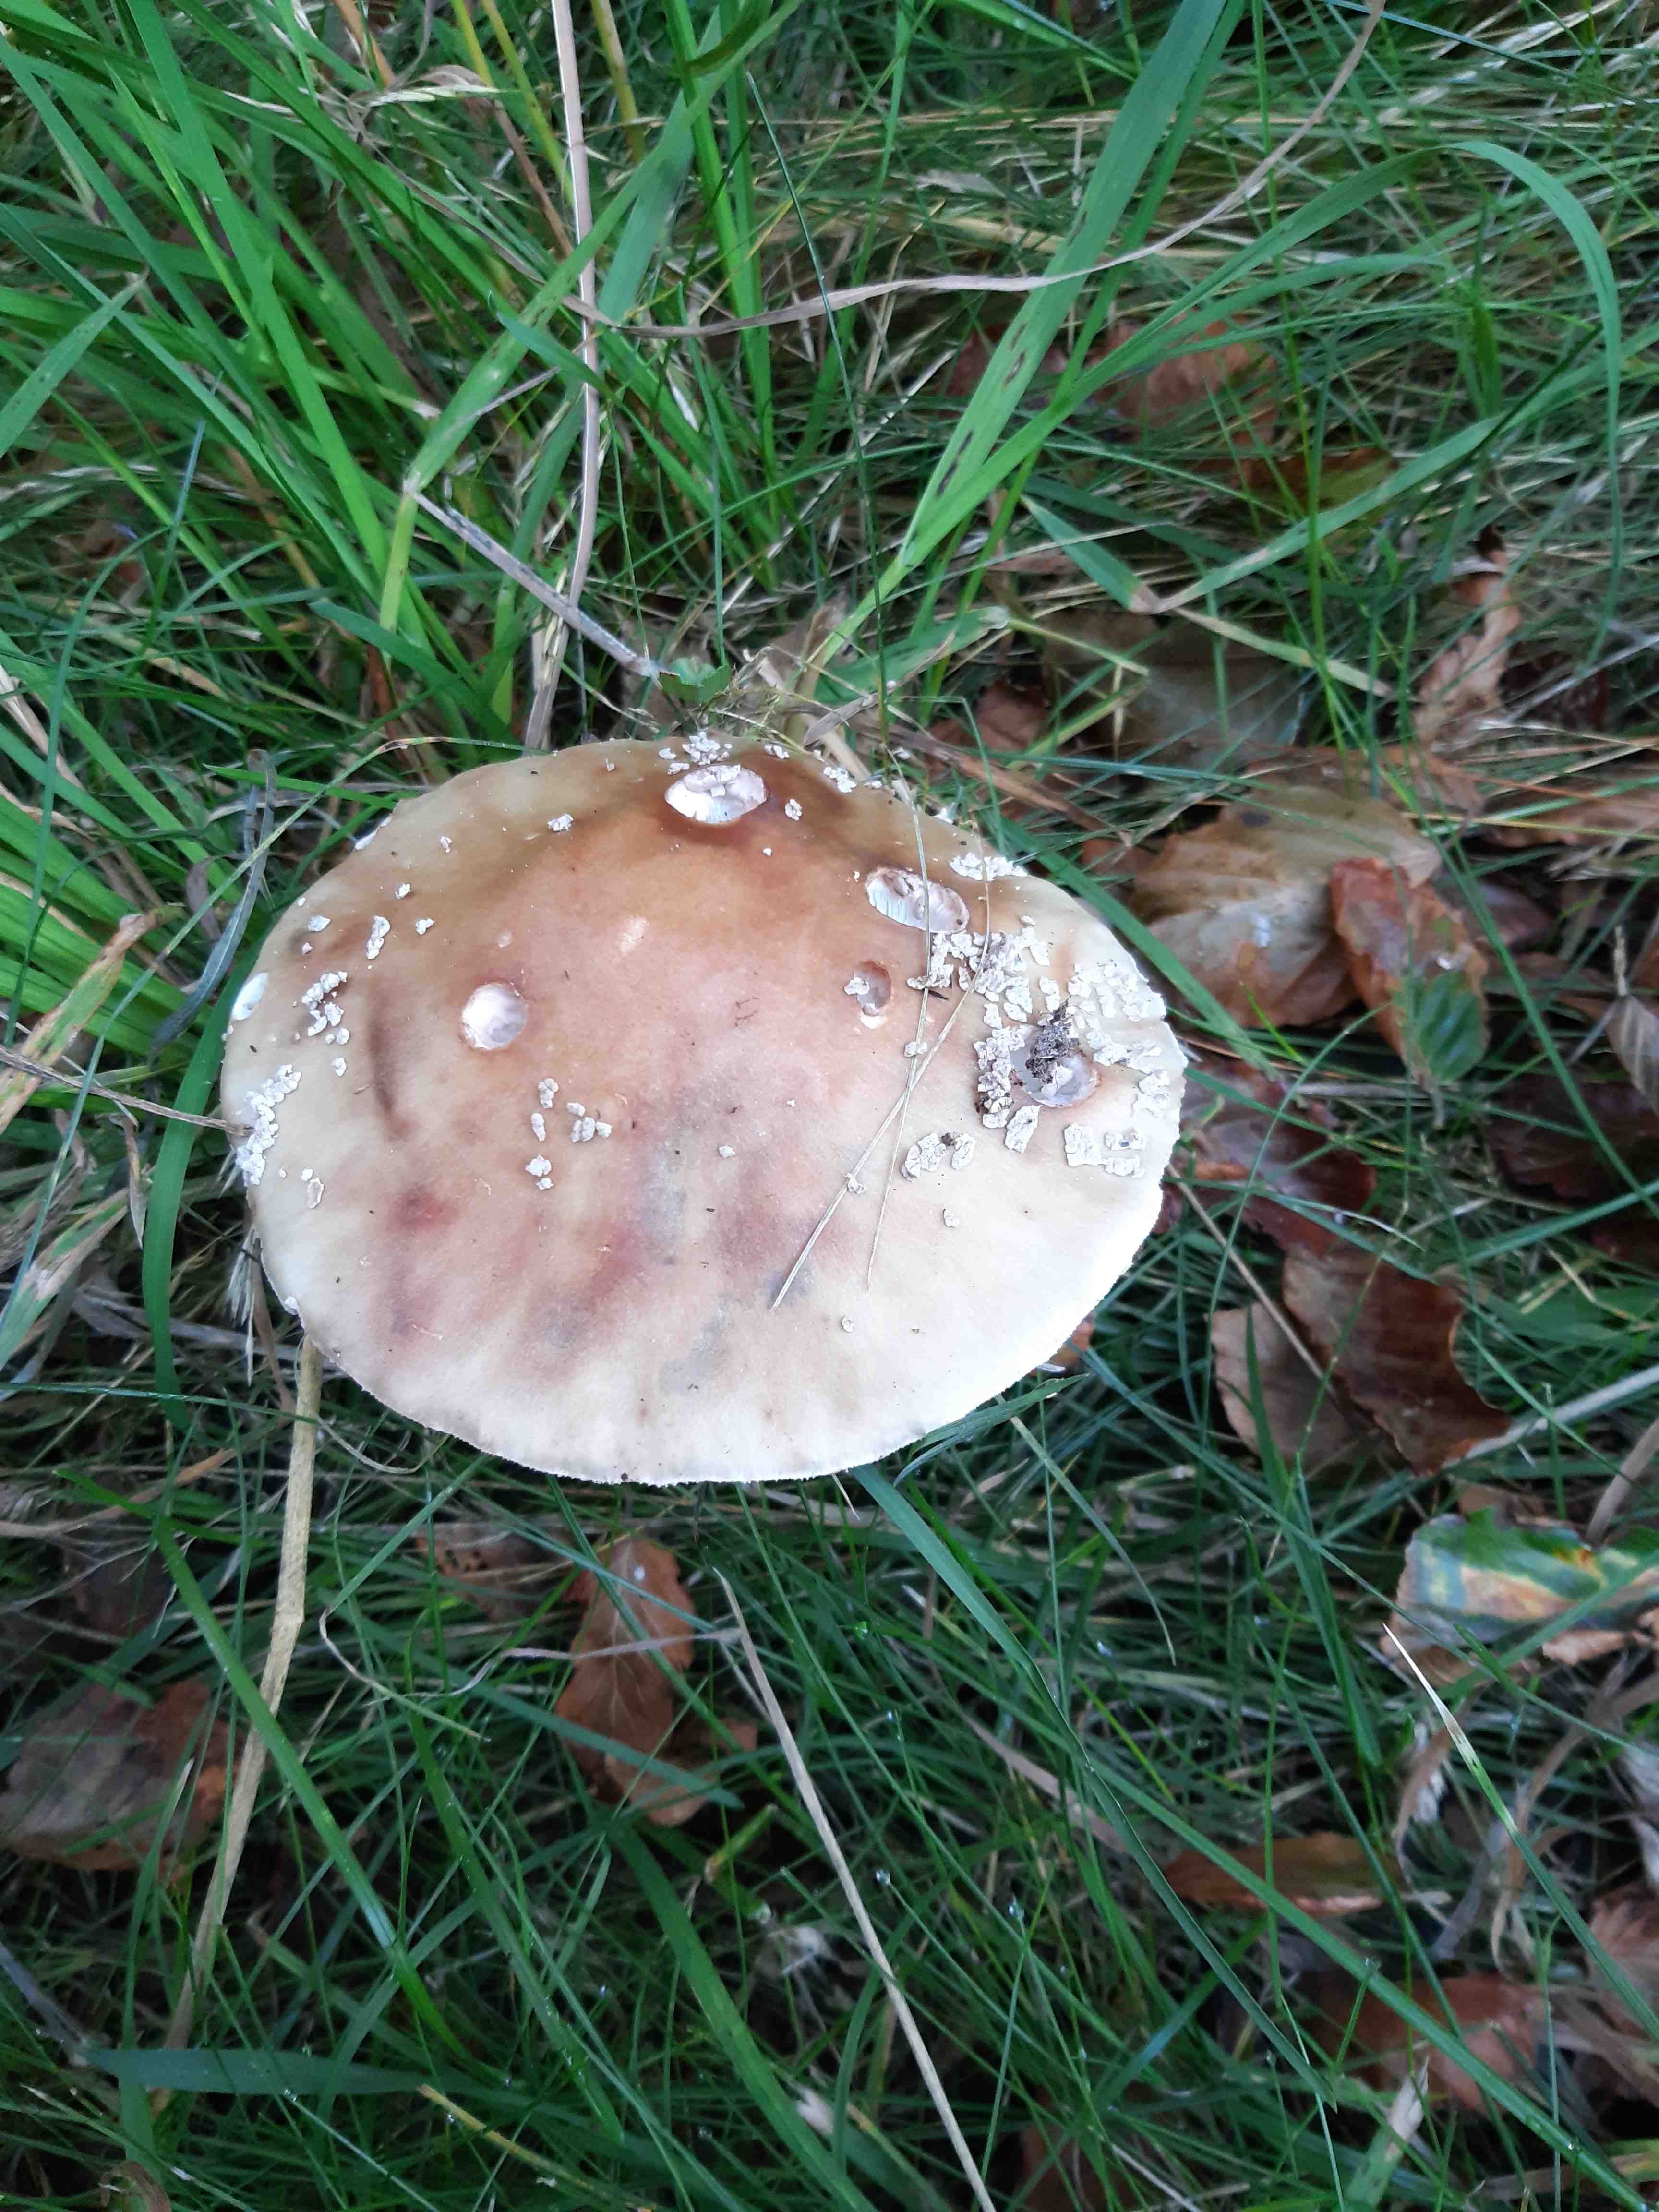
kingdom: Fungi
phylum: Basidiomycota
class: Agaricomycetes
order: Agaricales
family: Amanitaceae
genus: Amanita
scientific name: Amanita rubescens
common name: rødmende fluesvamp
